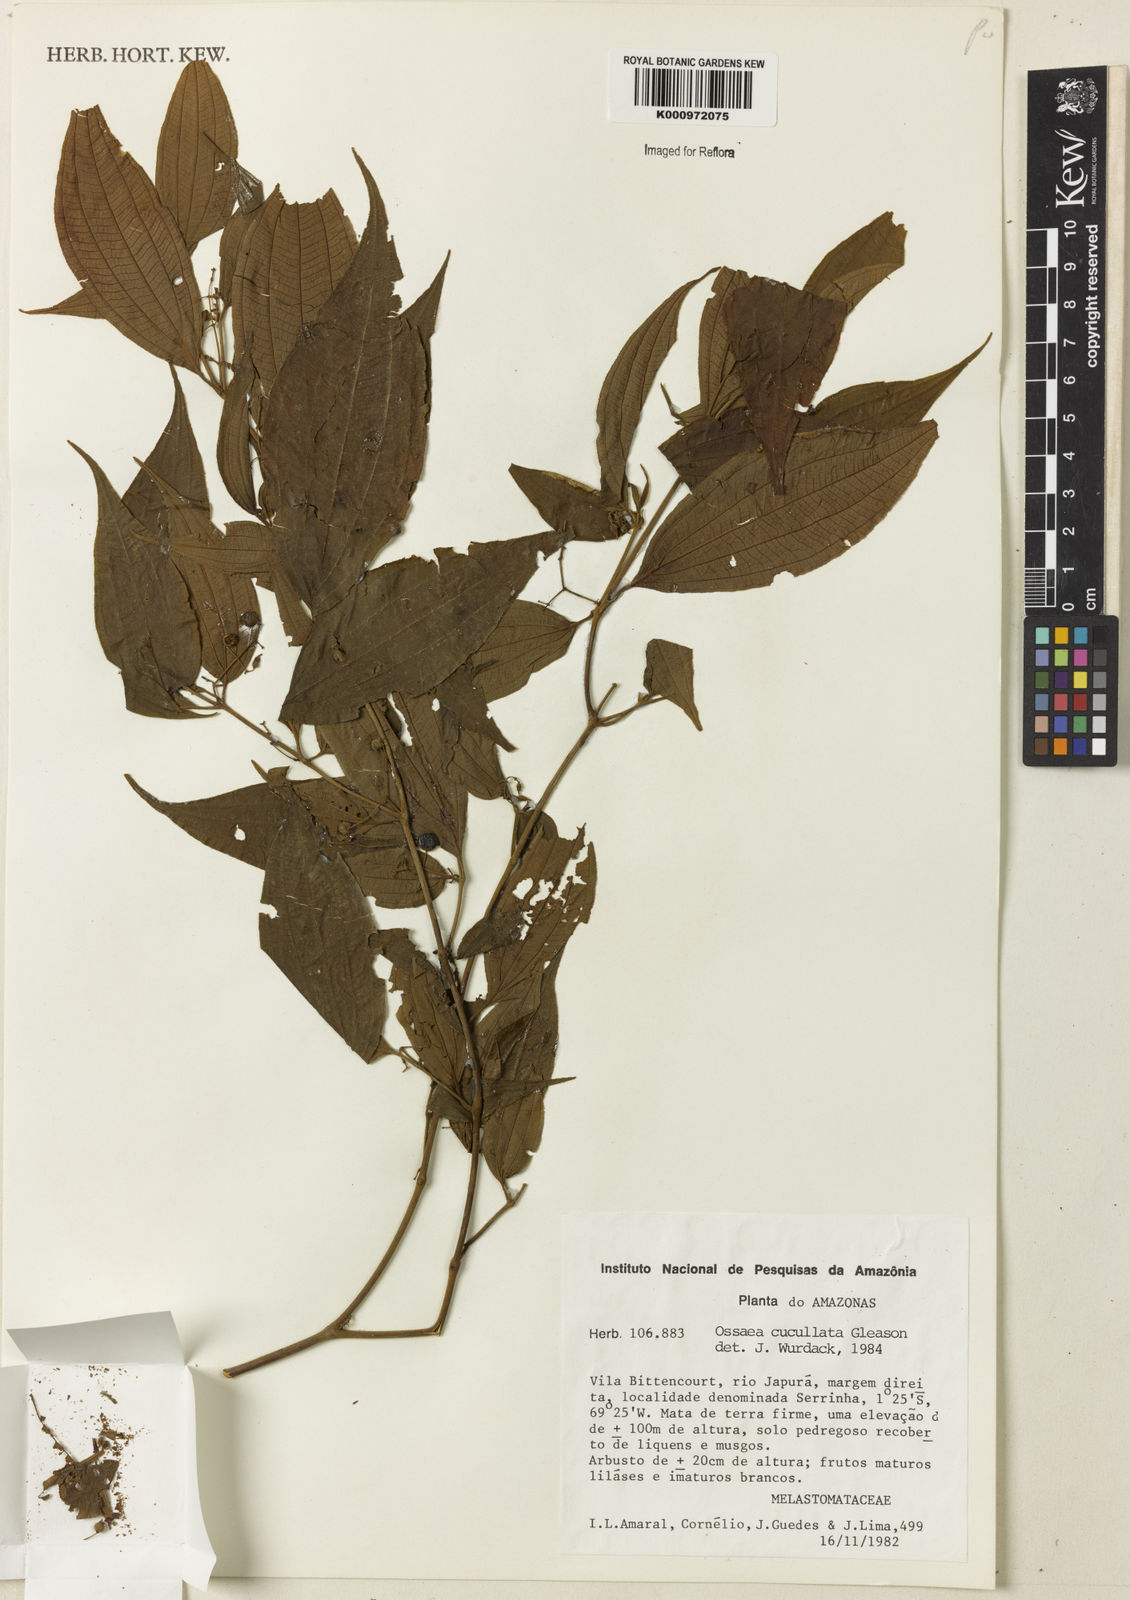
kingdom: Plantae
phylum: Tracheophyta
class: Magnoliopsida
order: Myrtales
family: Melastomataceae
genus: Miconia
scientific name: Miconia cucullata
